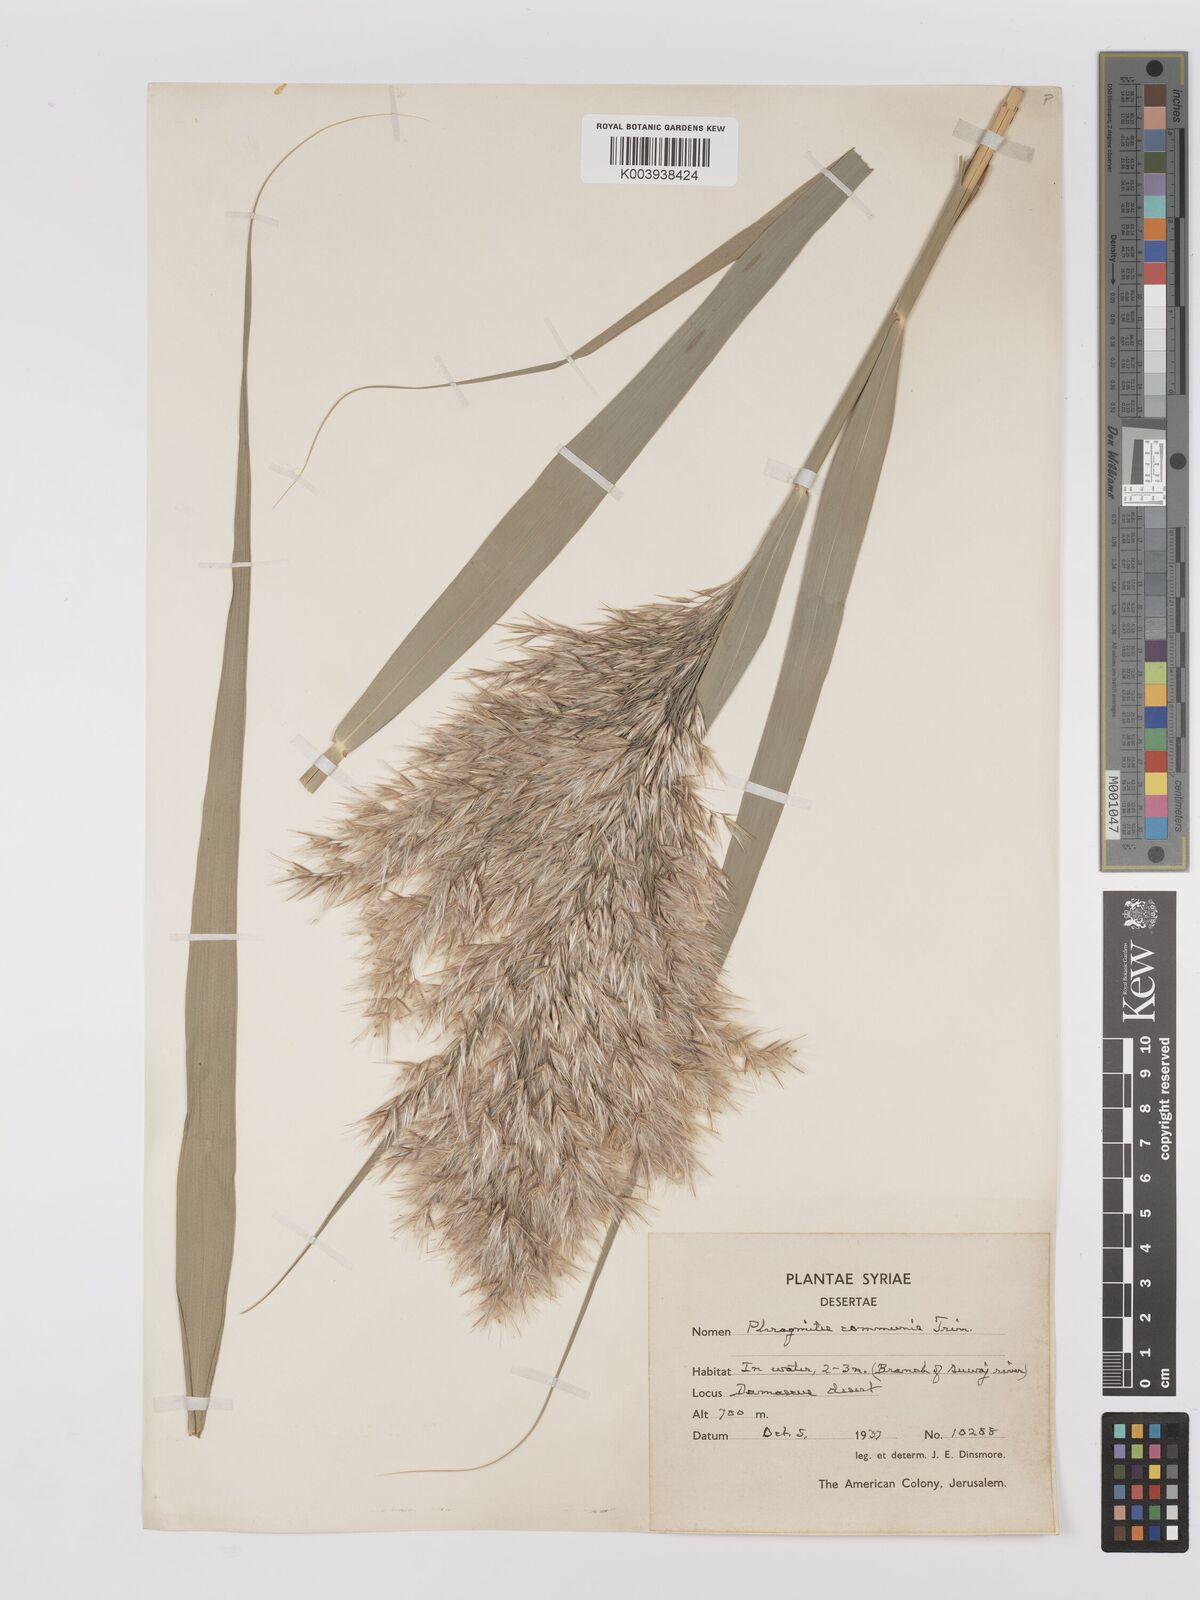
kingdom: Plantae
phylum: Tracheophyta
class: Liliopsida
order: Poales
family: Poaceae
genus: Phragmites
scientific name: Phragmites australis
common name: Common reed
